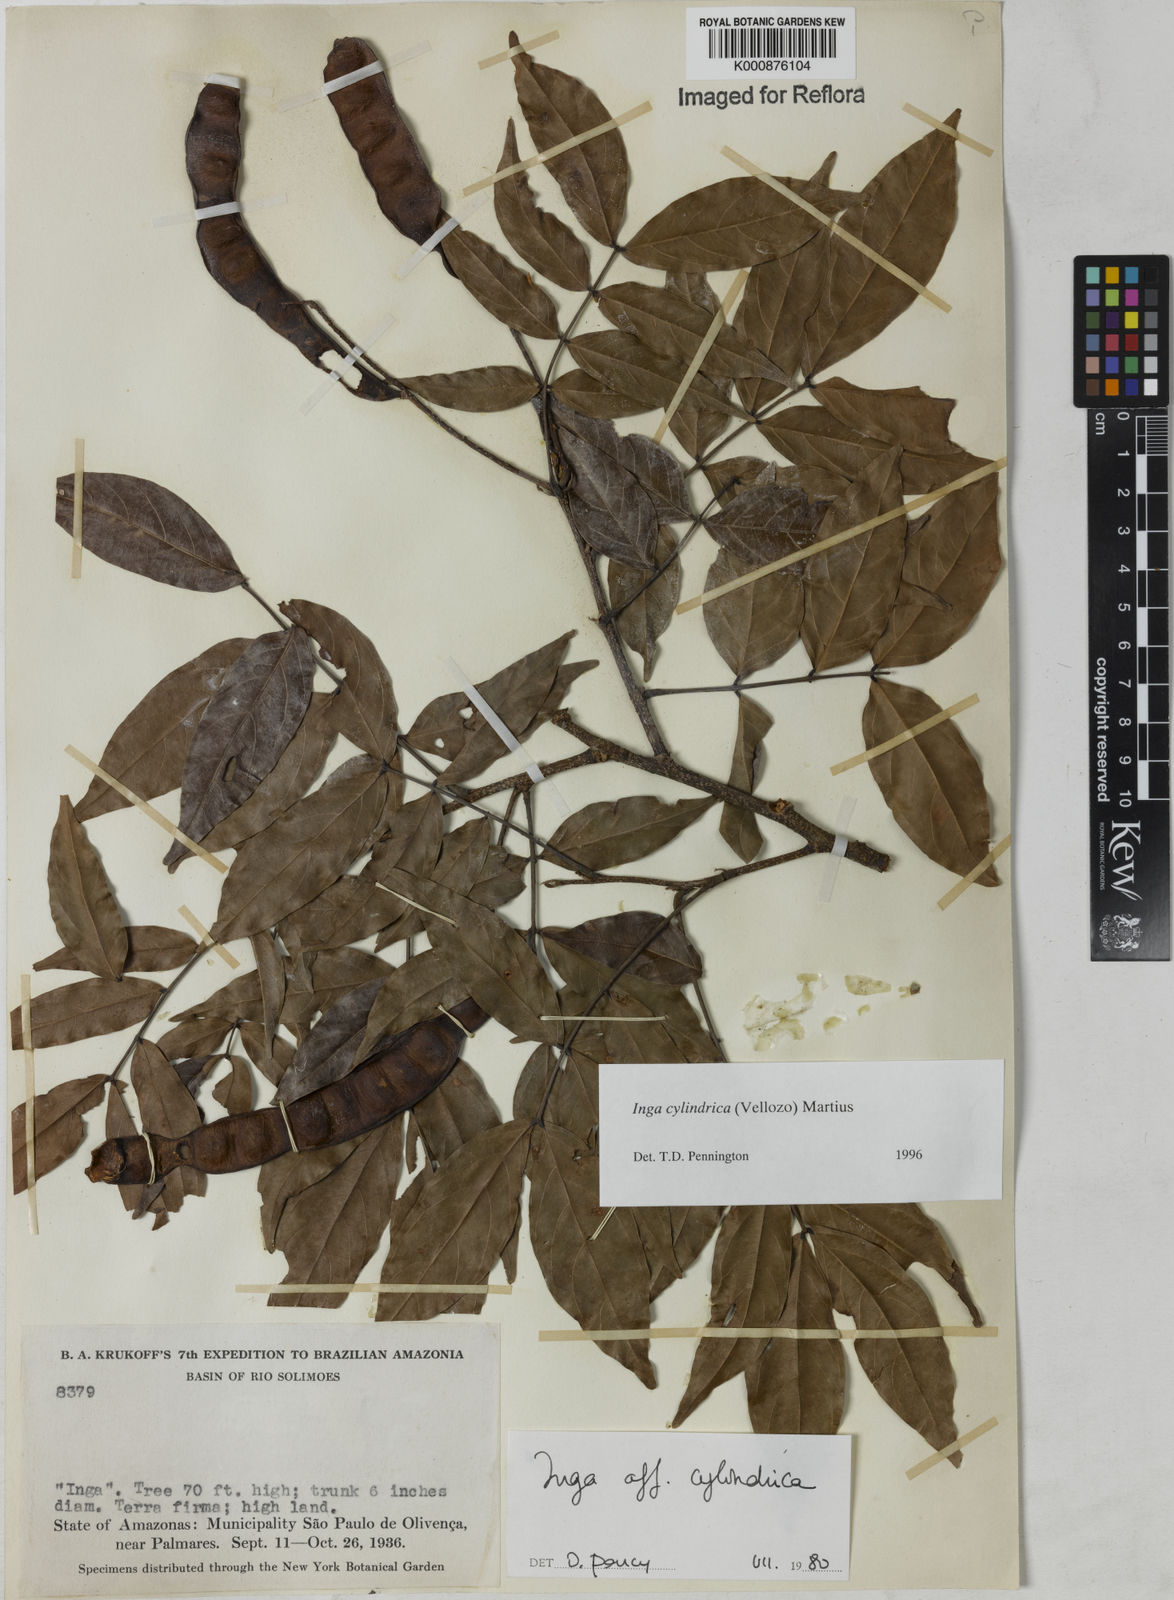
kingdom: Plantae
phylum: Tracheophyta
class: Magnoliopsida
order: Fabales
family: Fabaceae
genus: Inga
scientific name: Inga cylindrica
